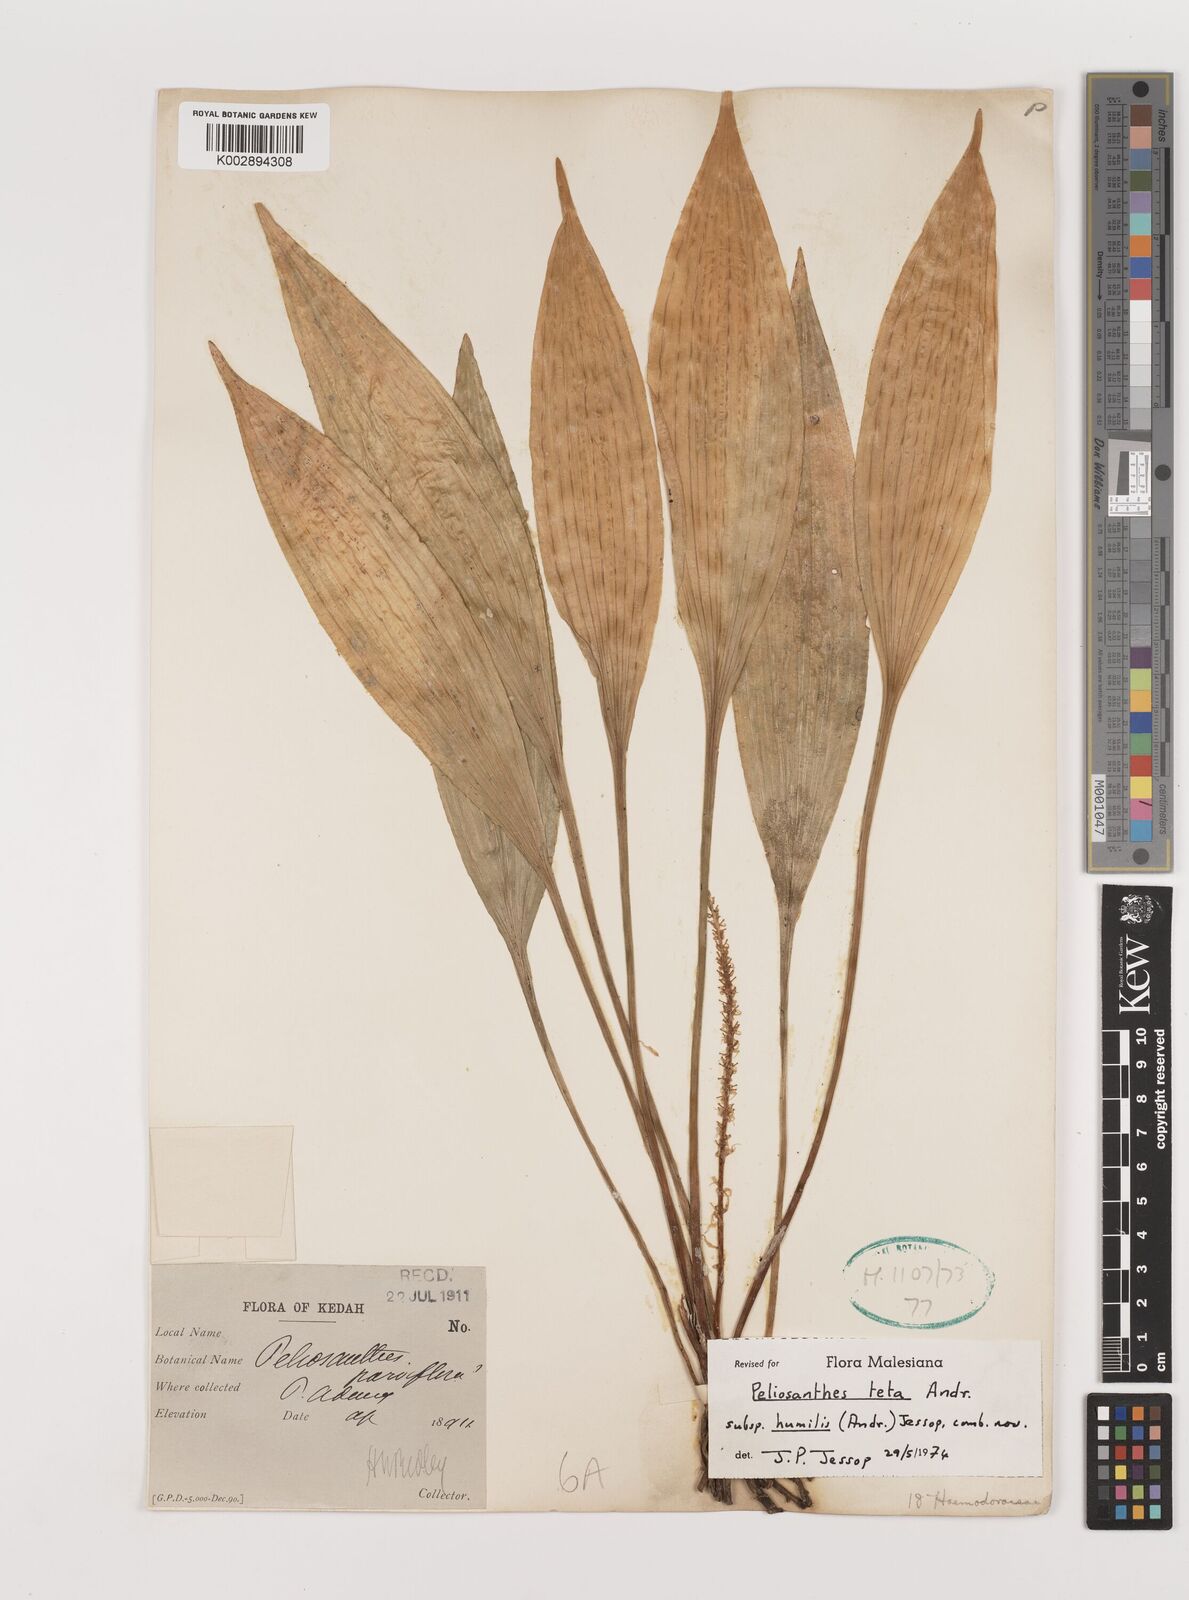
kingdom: Plantae
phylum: Tracheophyta
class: Liliopsida
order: Asparagales
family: Asparagaceae
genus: Peliosanthes
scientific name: Peliosanthes teta
